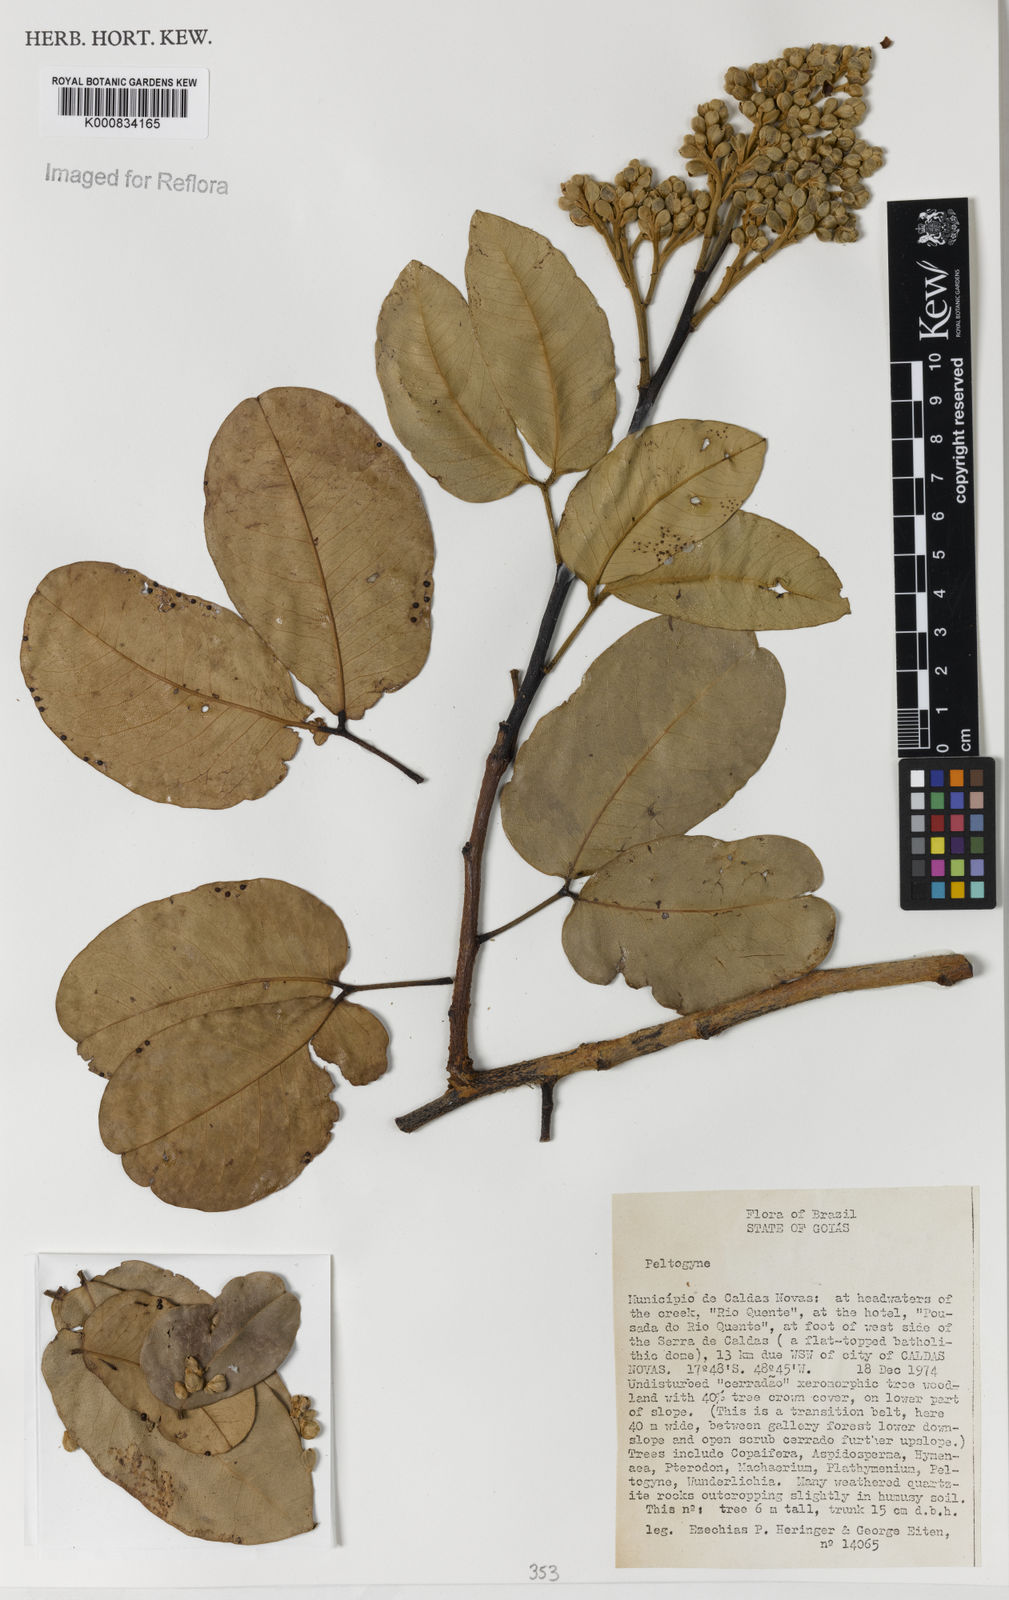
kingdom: Plantae
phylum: Tracheophyta
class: Magnoliopsida
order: Fabales
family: Fabaceae
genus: Peltogyne
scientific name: Peltogyne
